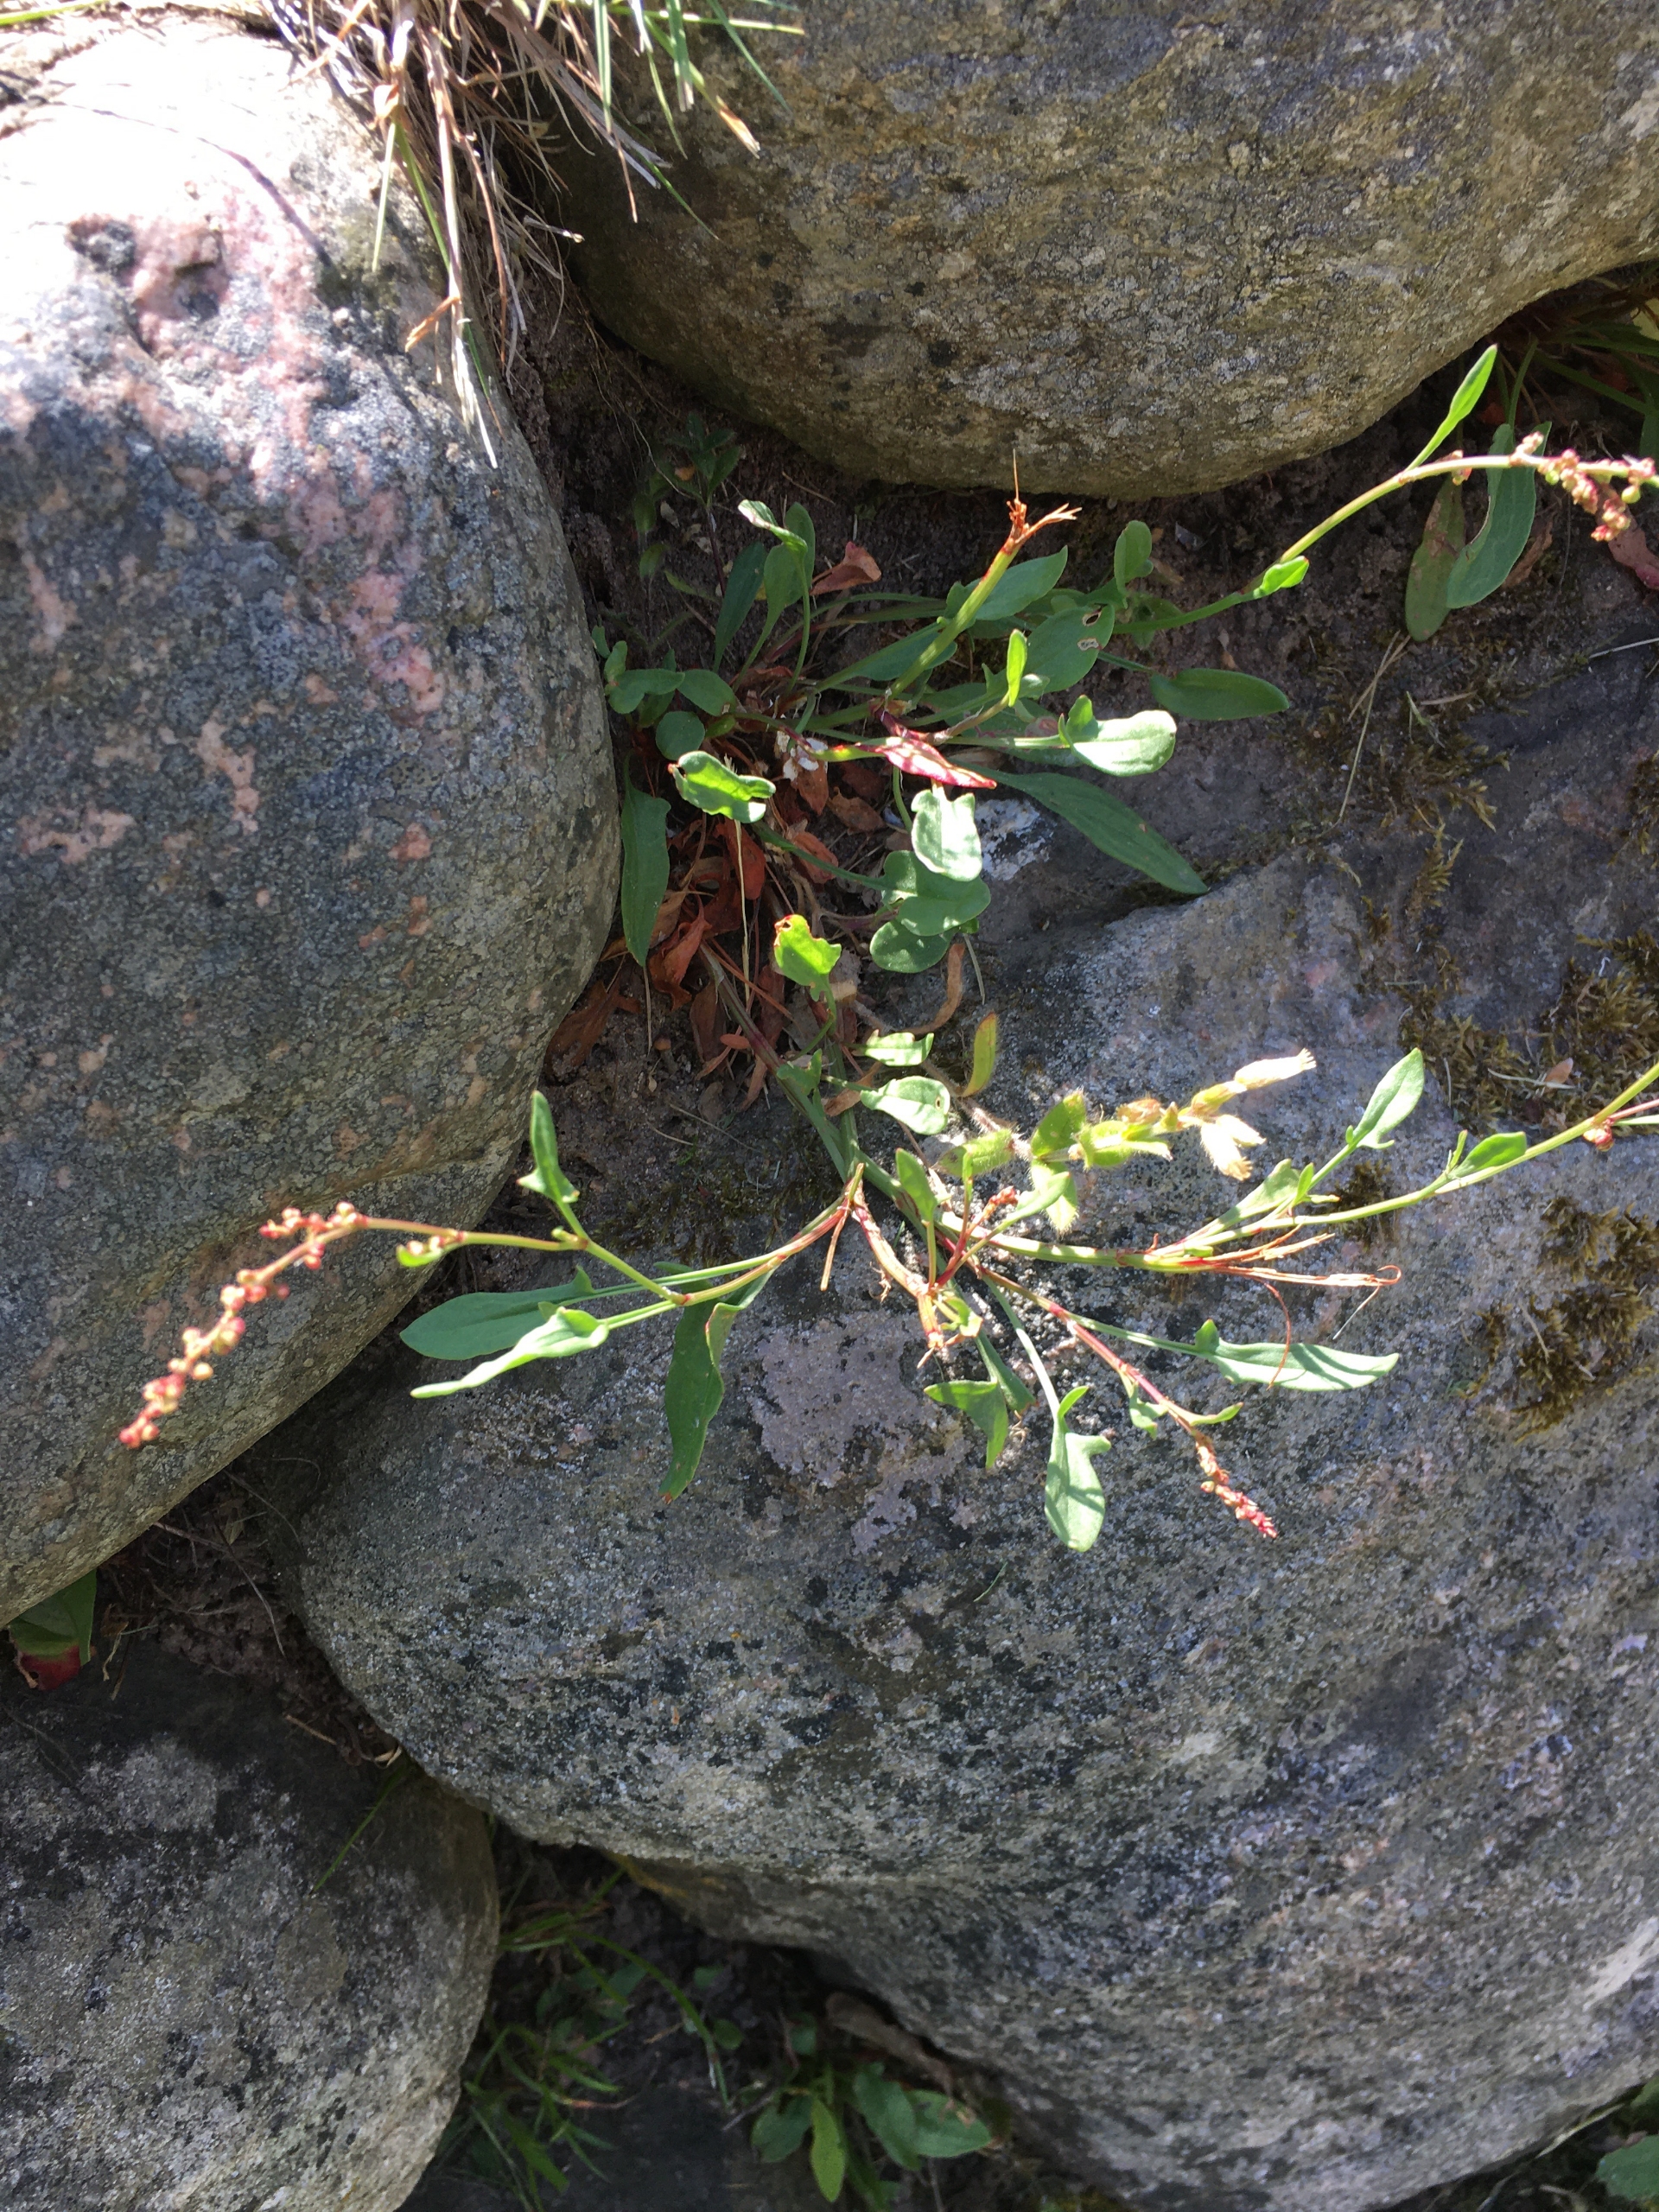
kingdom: Plantae
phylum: Tracheophyta
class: Magnoliopsida
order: Caryophyllales
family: Polygonaceae
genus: Rumex
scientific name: Rumex acetosella
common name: Almindelig rødknæ
